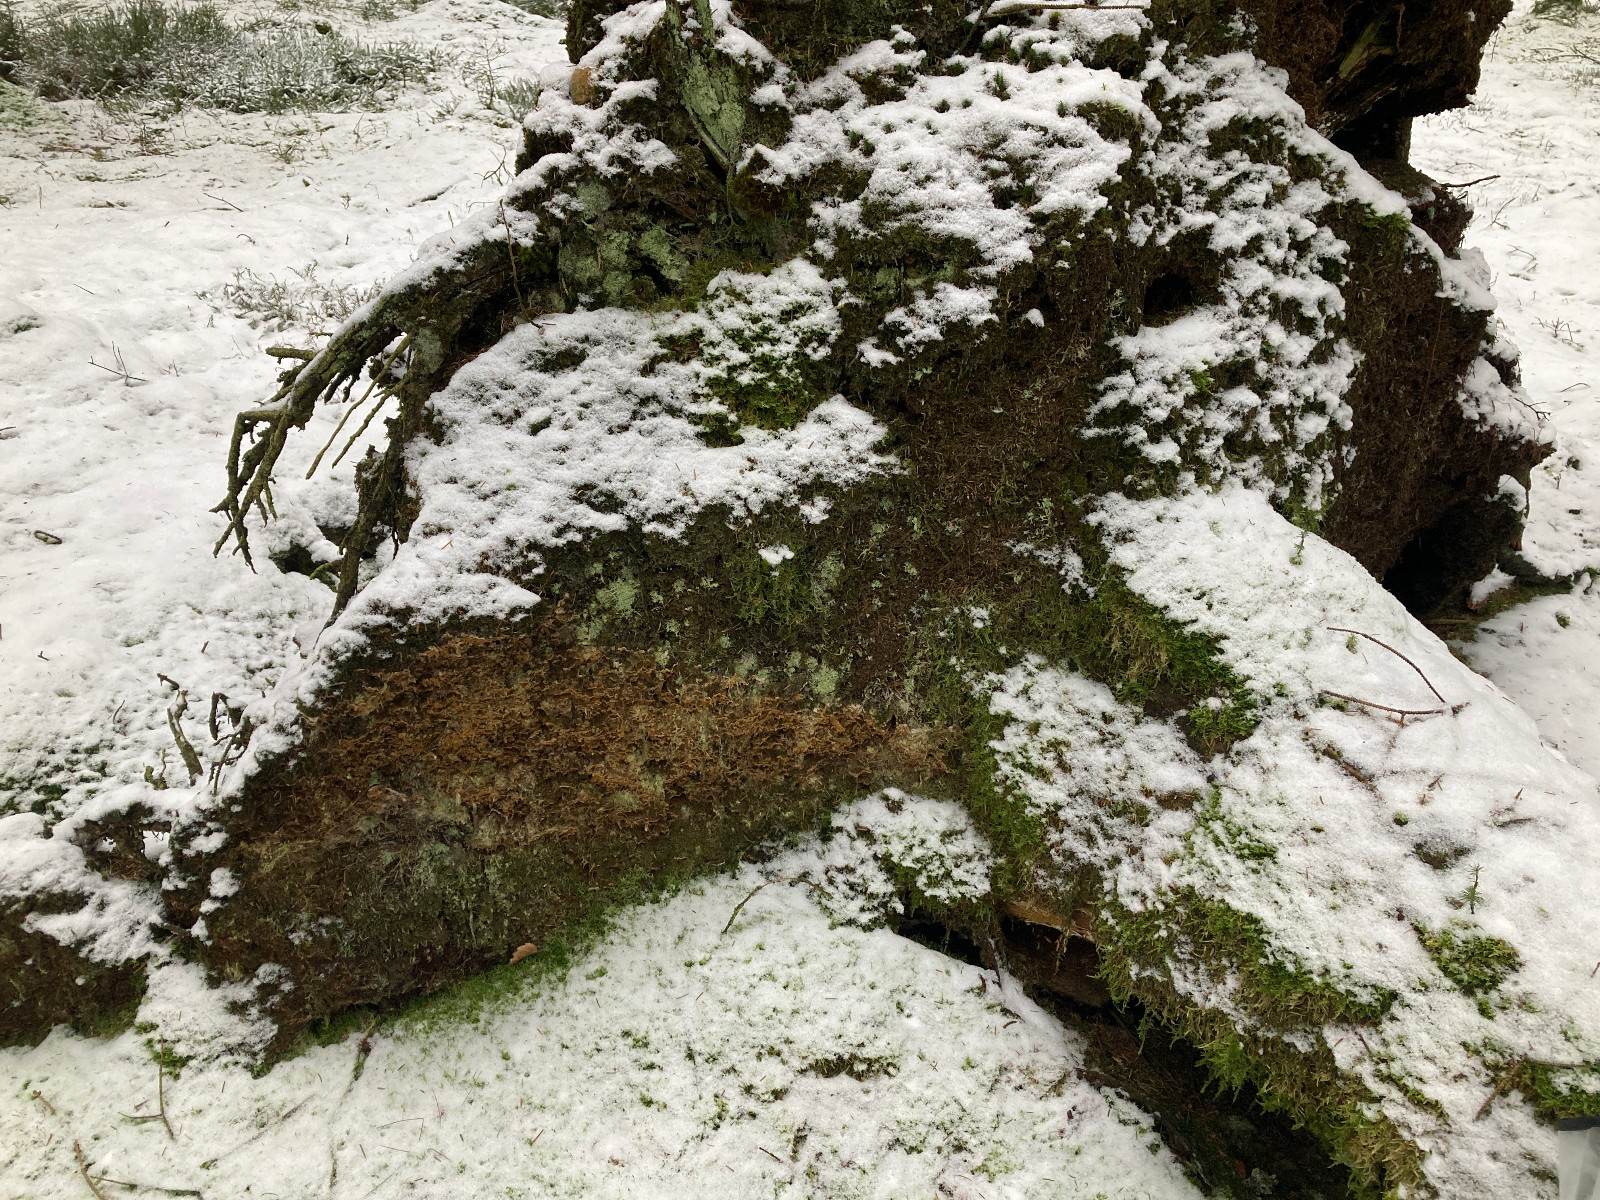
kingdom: Fungi
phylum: Basidiomycota
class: Agaricomycetes
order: Boletales
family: Serpulaceae
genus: Serpula
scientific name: Serpula himantioides
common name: tyndkødet hussvamp
